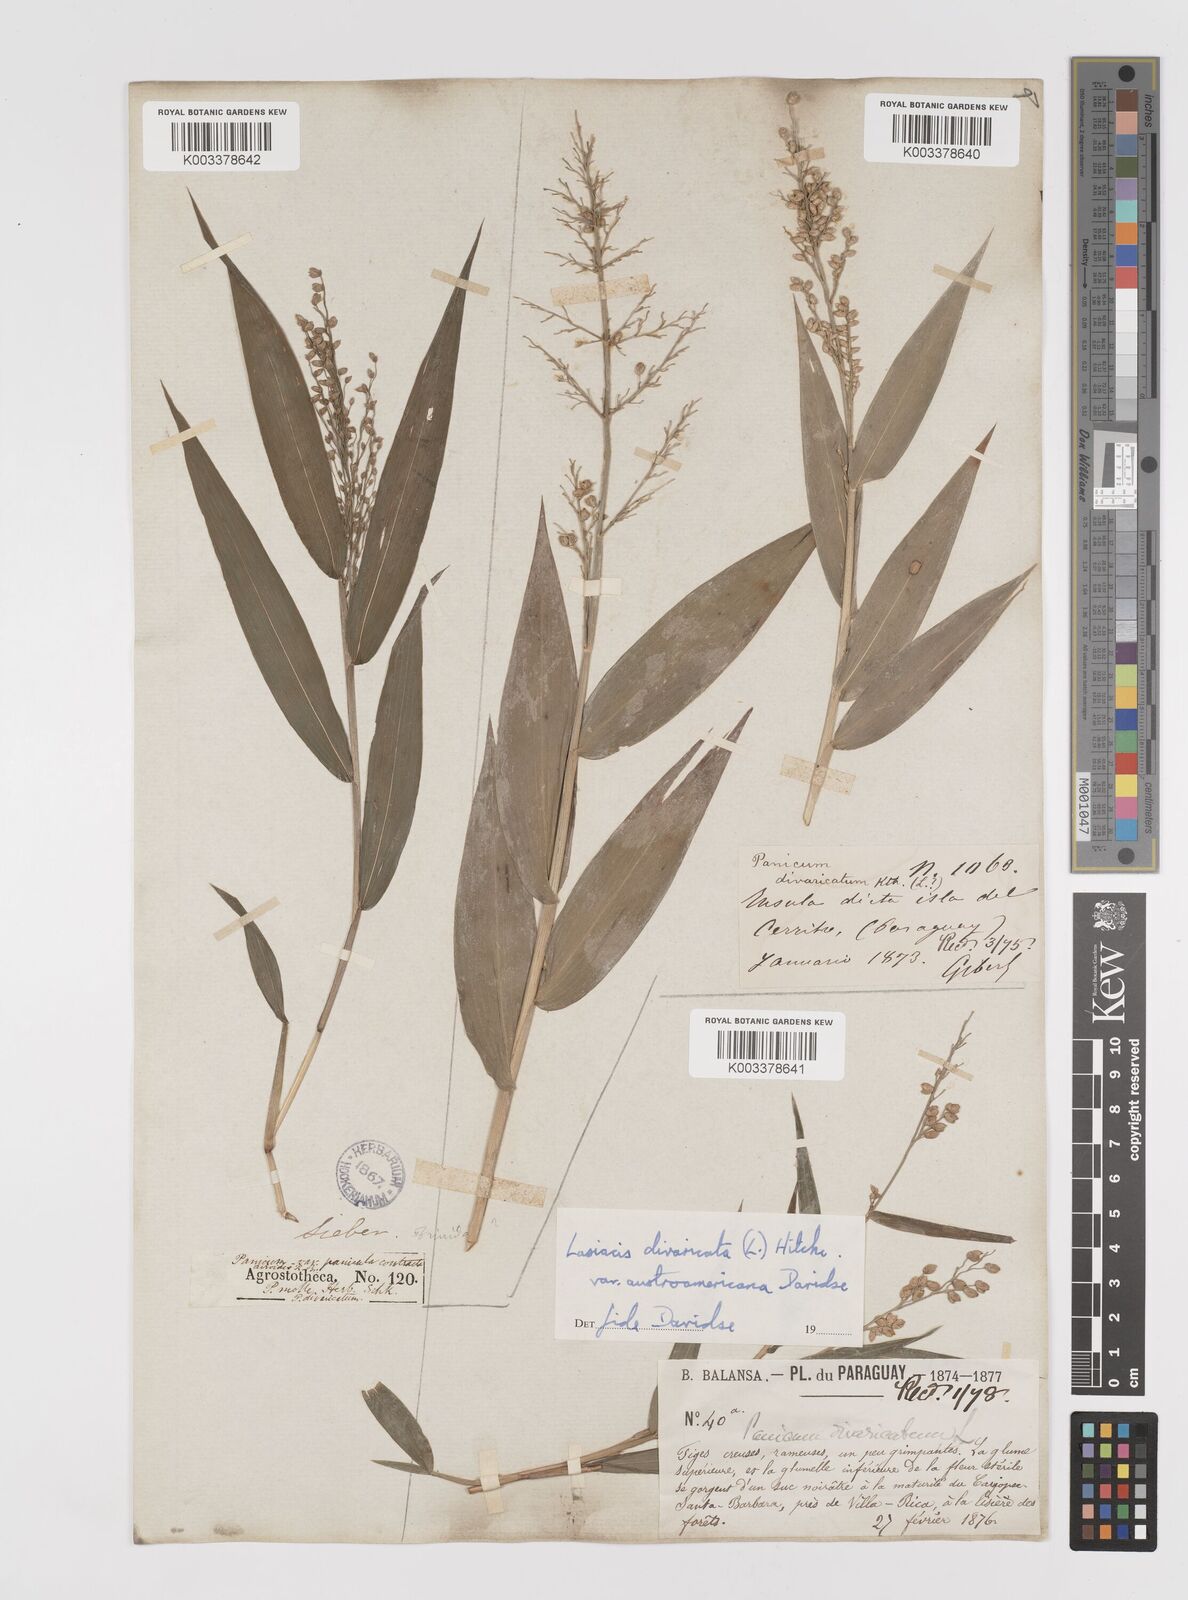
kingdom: Plantae
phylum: Tracheophyta
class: Liliopsida
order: Poales
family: Poaceae
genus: Lasiacis
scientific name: Lasiacis divaricata
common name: Smallcane
